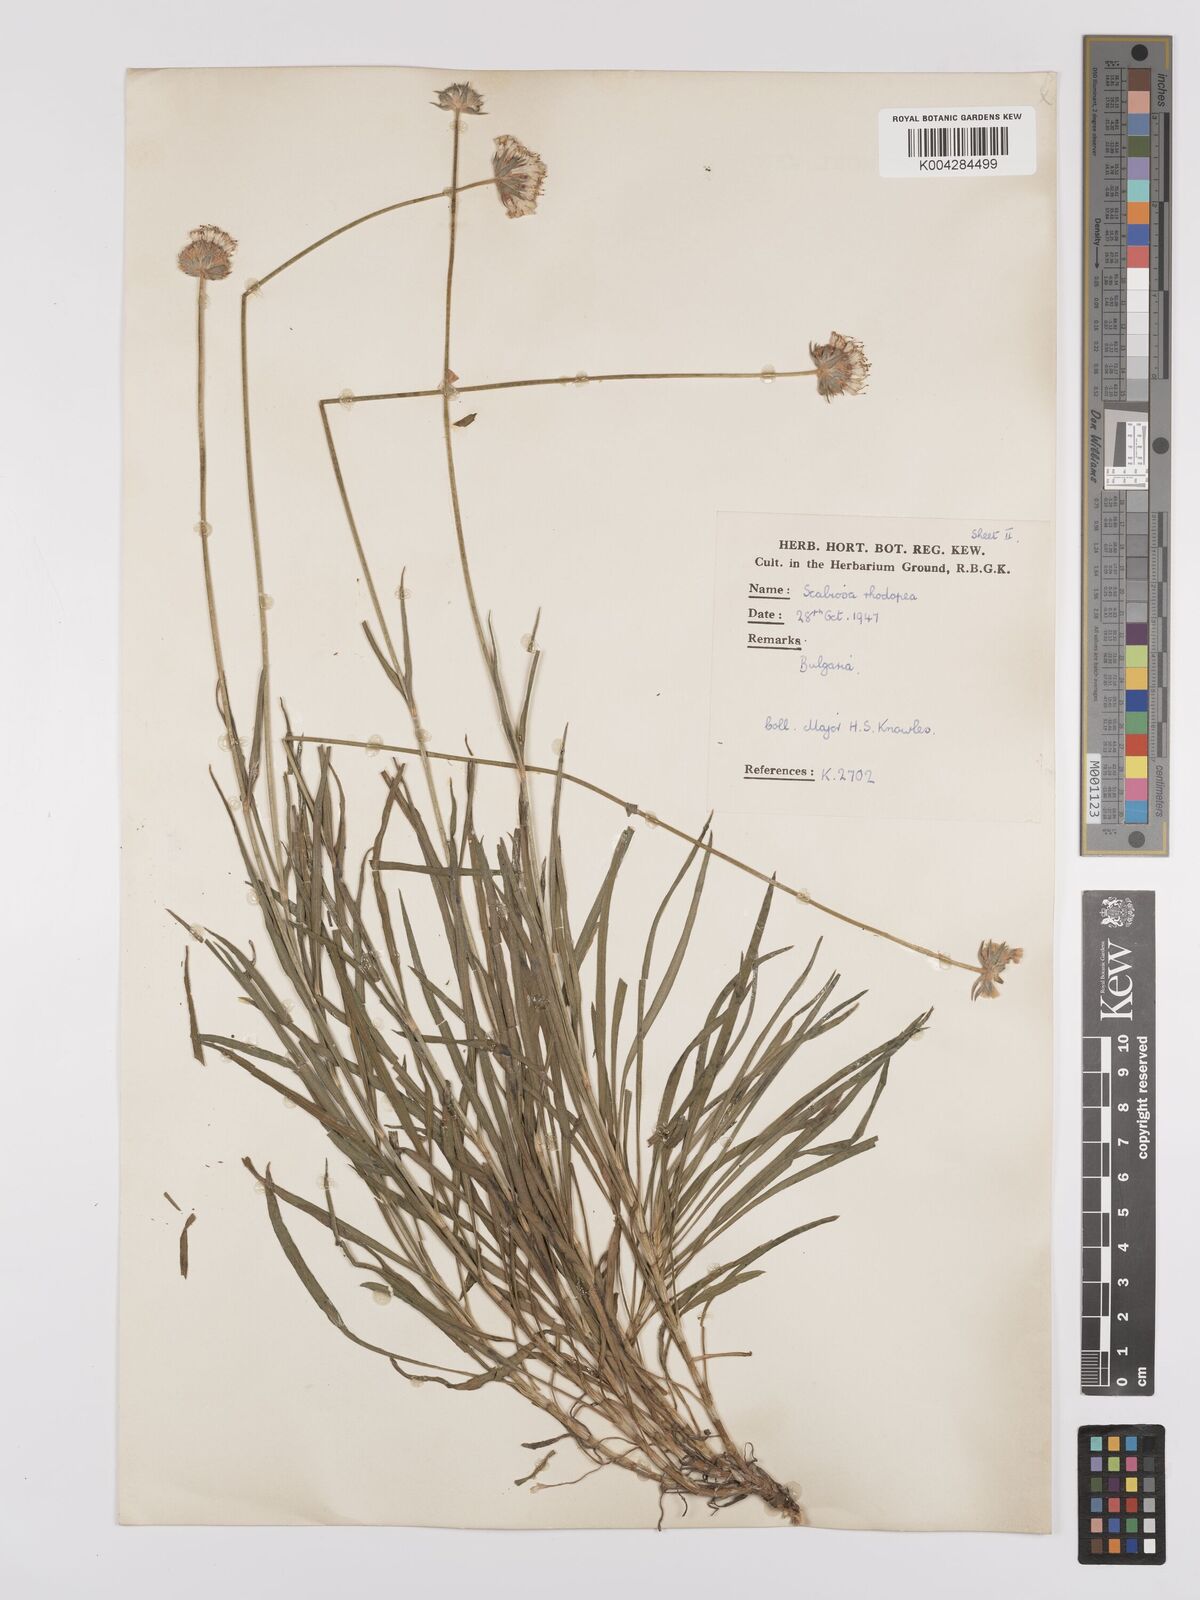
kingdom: Plantae
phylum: Tracheophyta
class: Magnoliopsida
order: Dipsacales
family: Caprifoliaceae
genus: Scabiosa
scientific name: Scabiosa ochroleuca
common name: Cream pincushions
